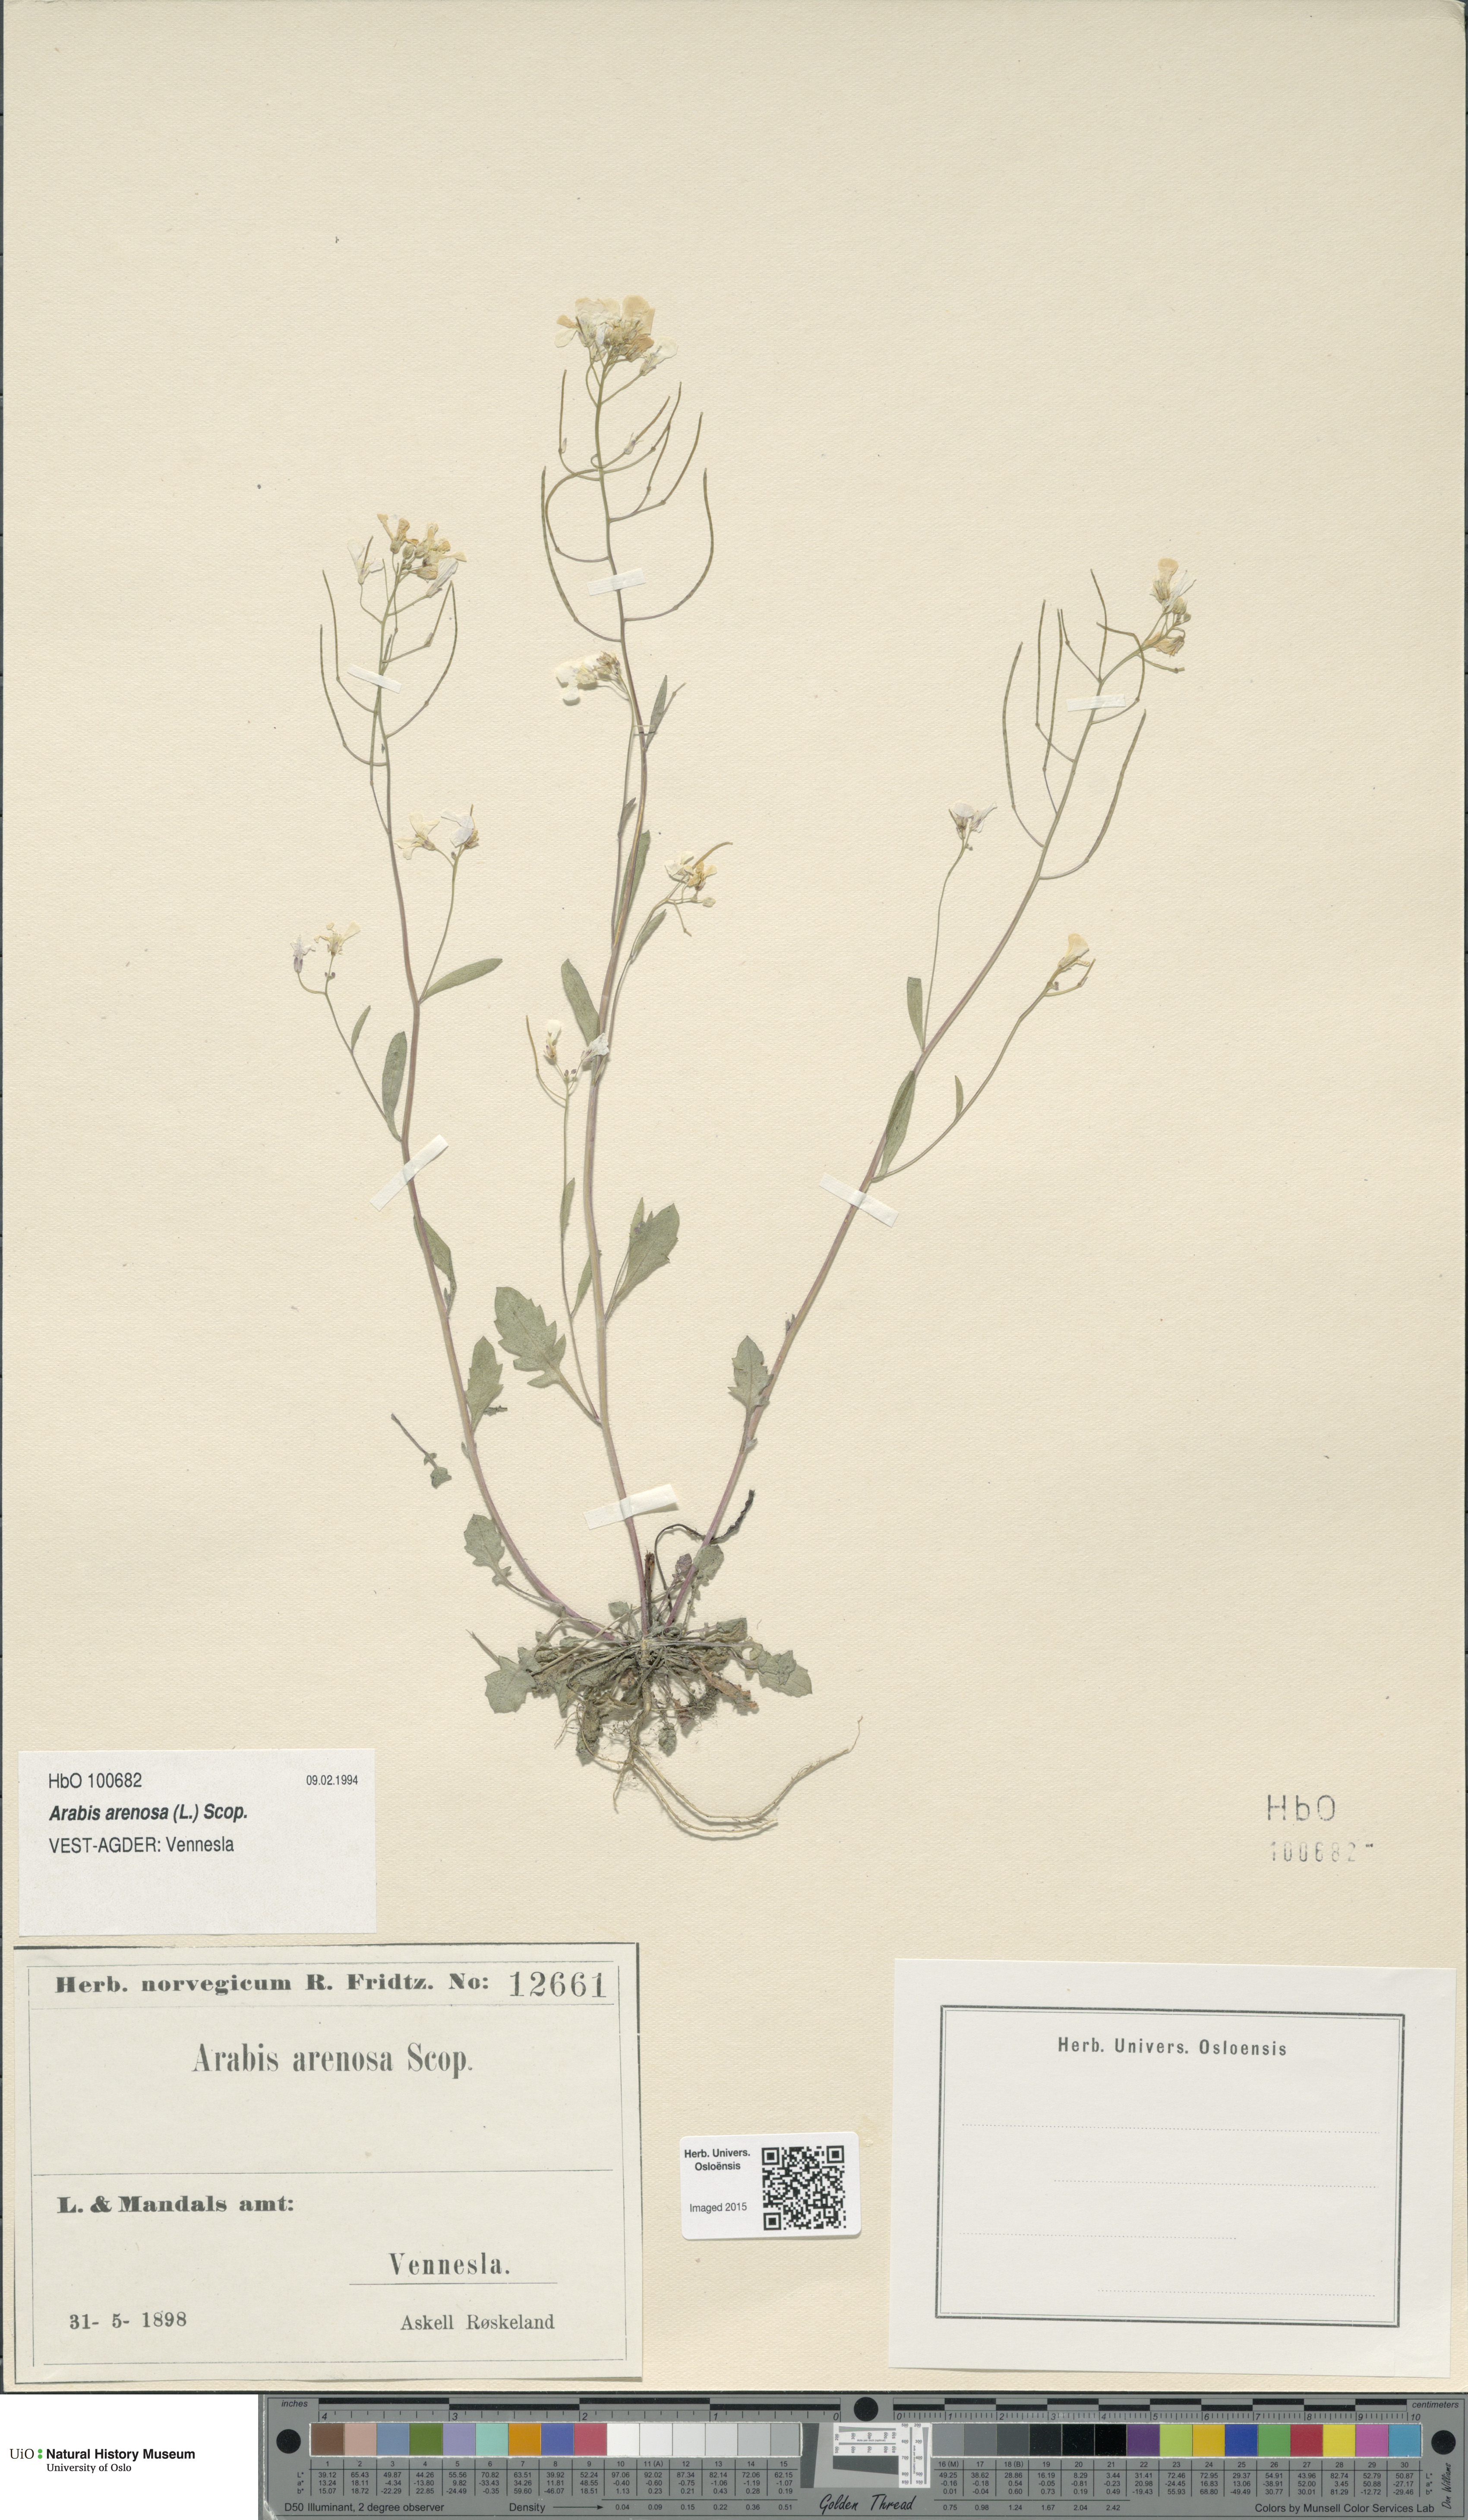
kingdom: Plantae
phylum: Tracheophyta
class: Magnoliopsida
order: Brassicales
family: Brassicaceae
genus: Arabidopsis
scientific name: Arabidopsis arenosa
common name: Sand rock-cress
